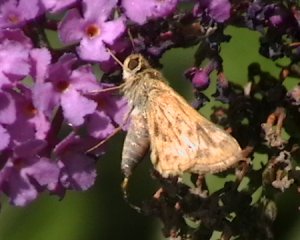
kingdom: Animalia
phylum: Arthropoda
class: Insecta
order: Lepidoptera
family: Hesperiidae
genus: Hylephila
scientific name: Hylephila phyleus
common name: Fiery Skipper
